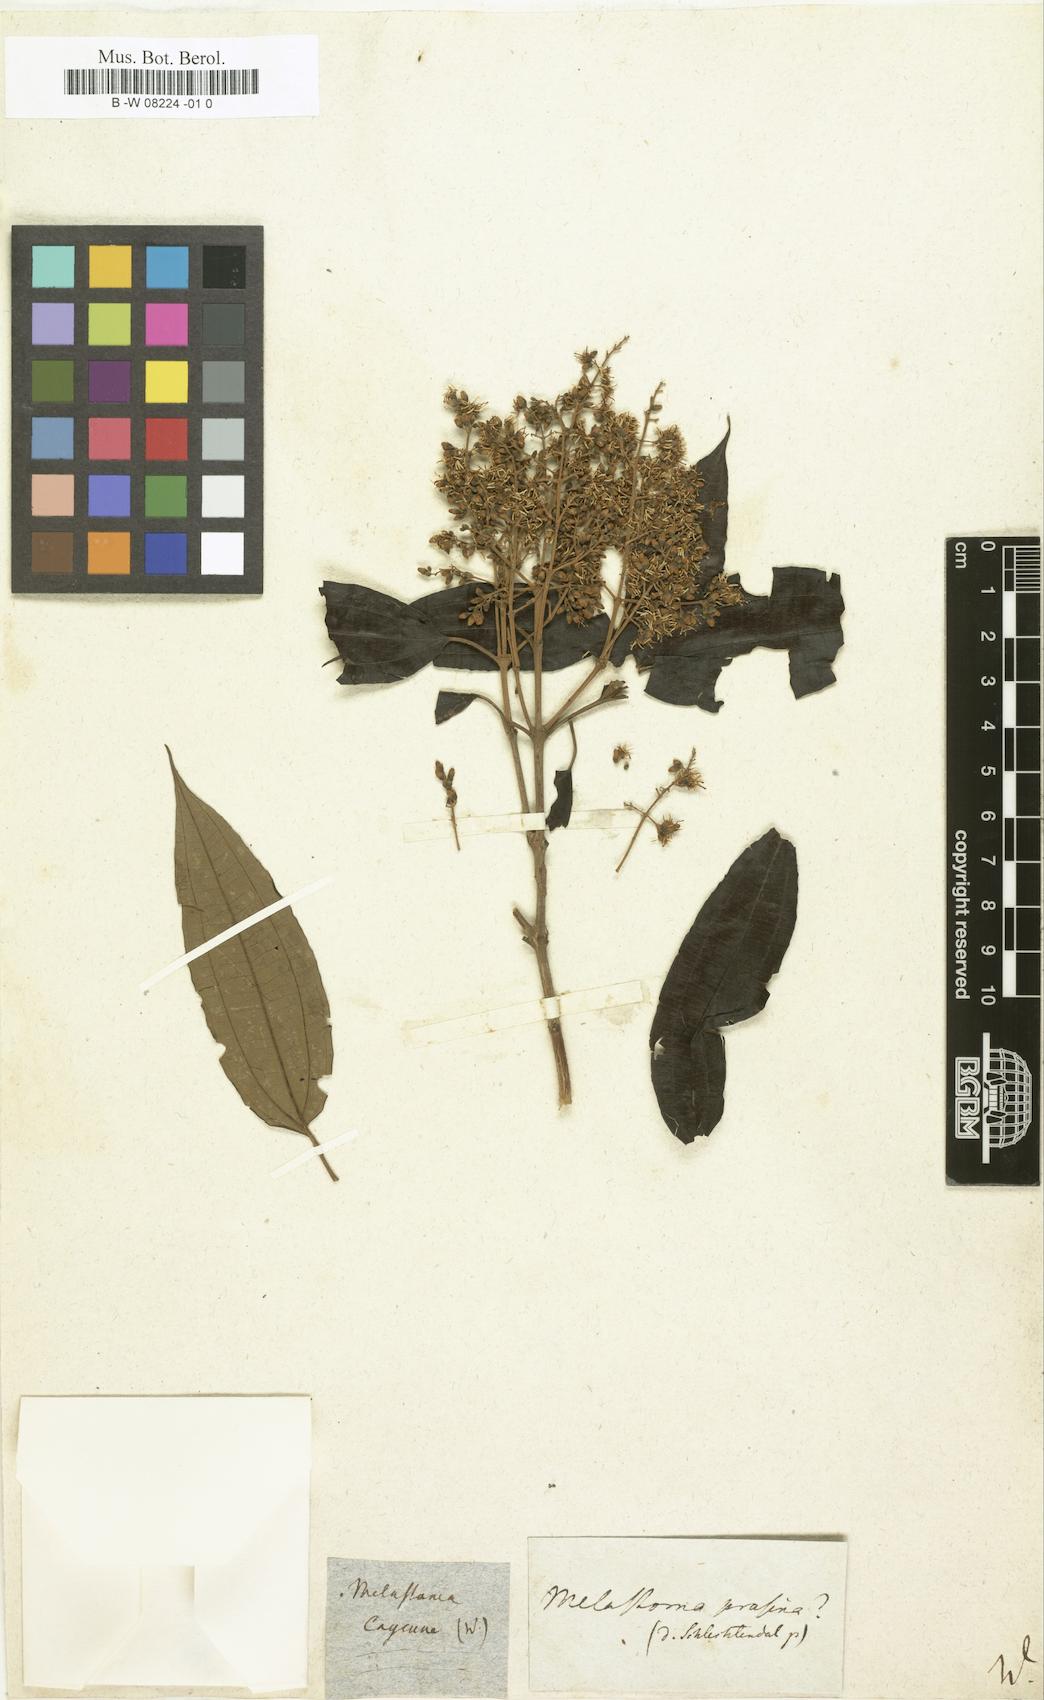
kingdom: Plantae
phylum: Tracheophyta
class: Magnoliopsida
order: Myrtales
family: Melastomataceae
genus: Melastoma
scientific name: Melastoma
